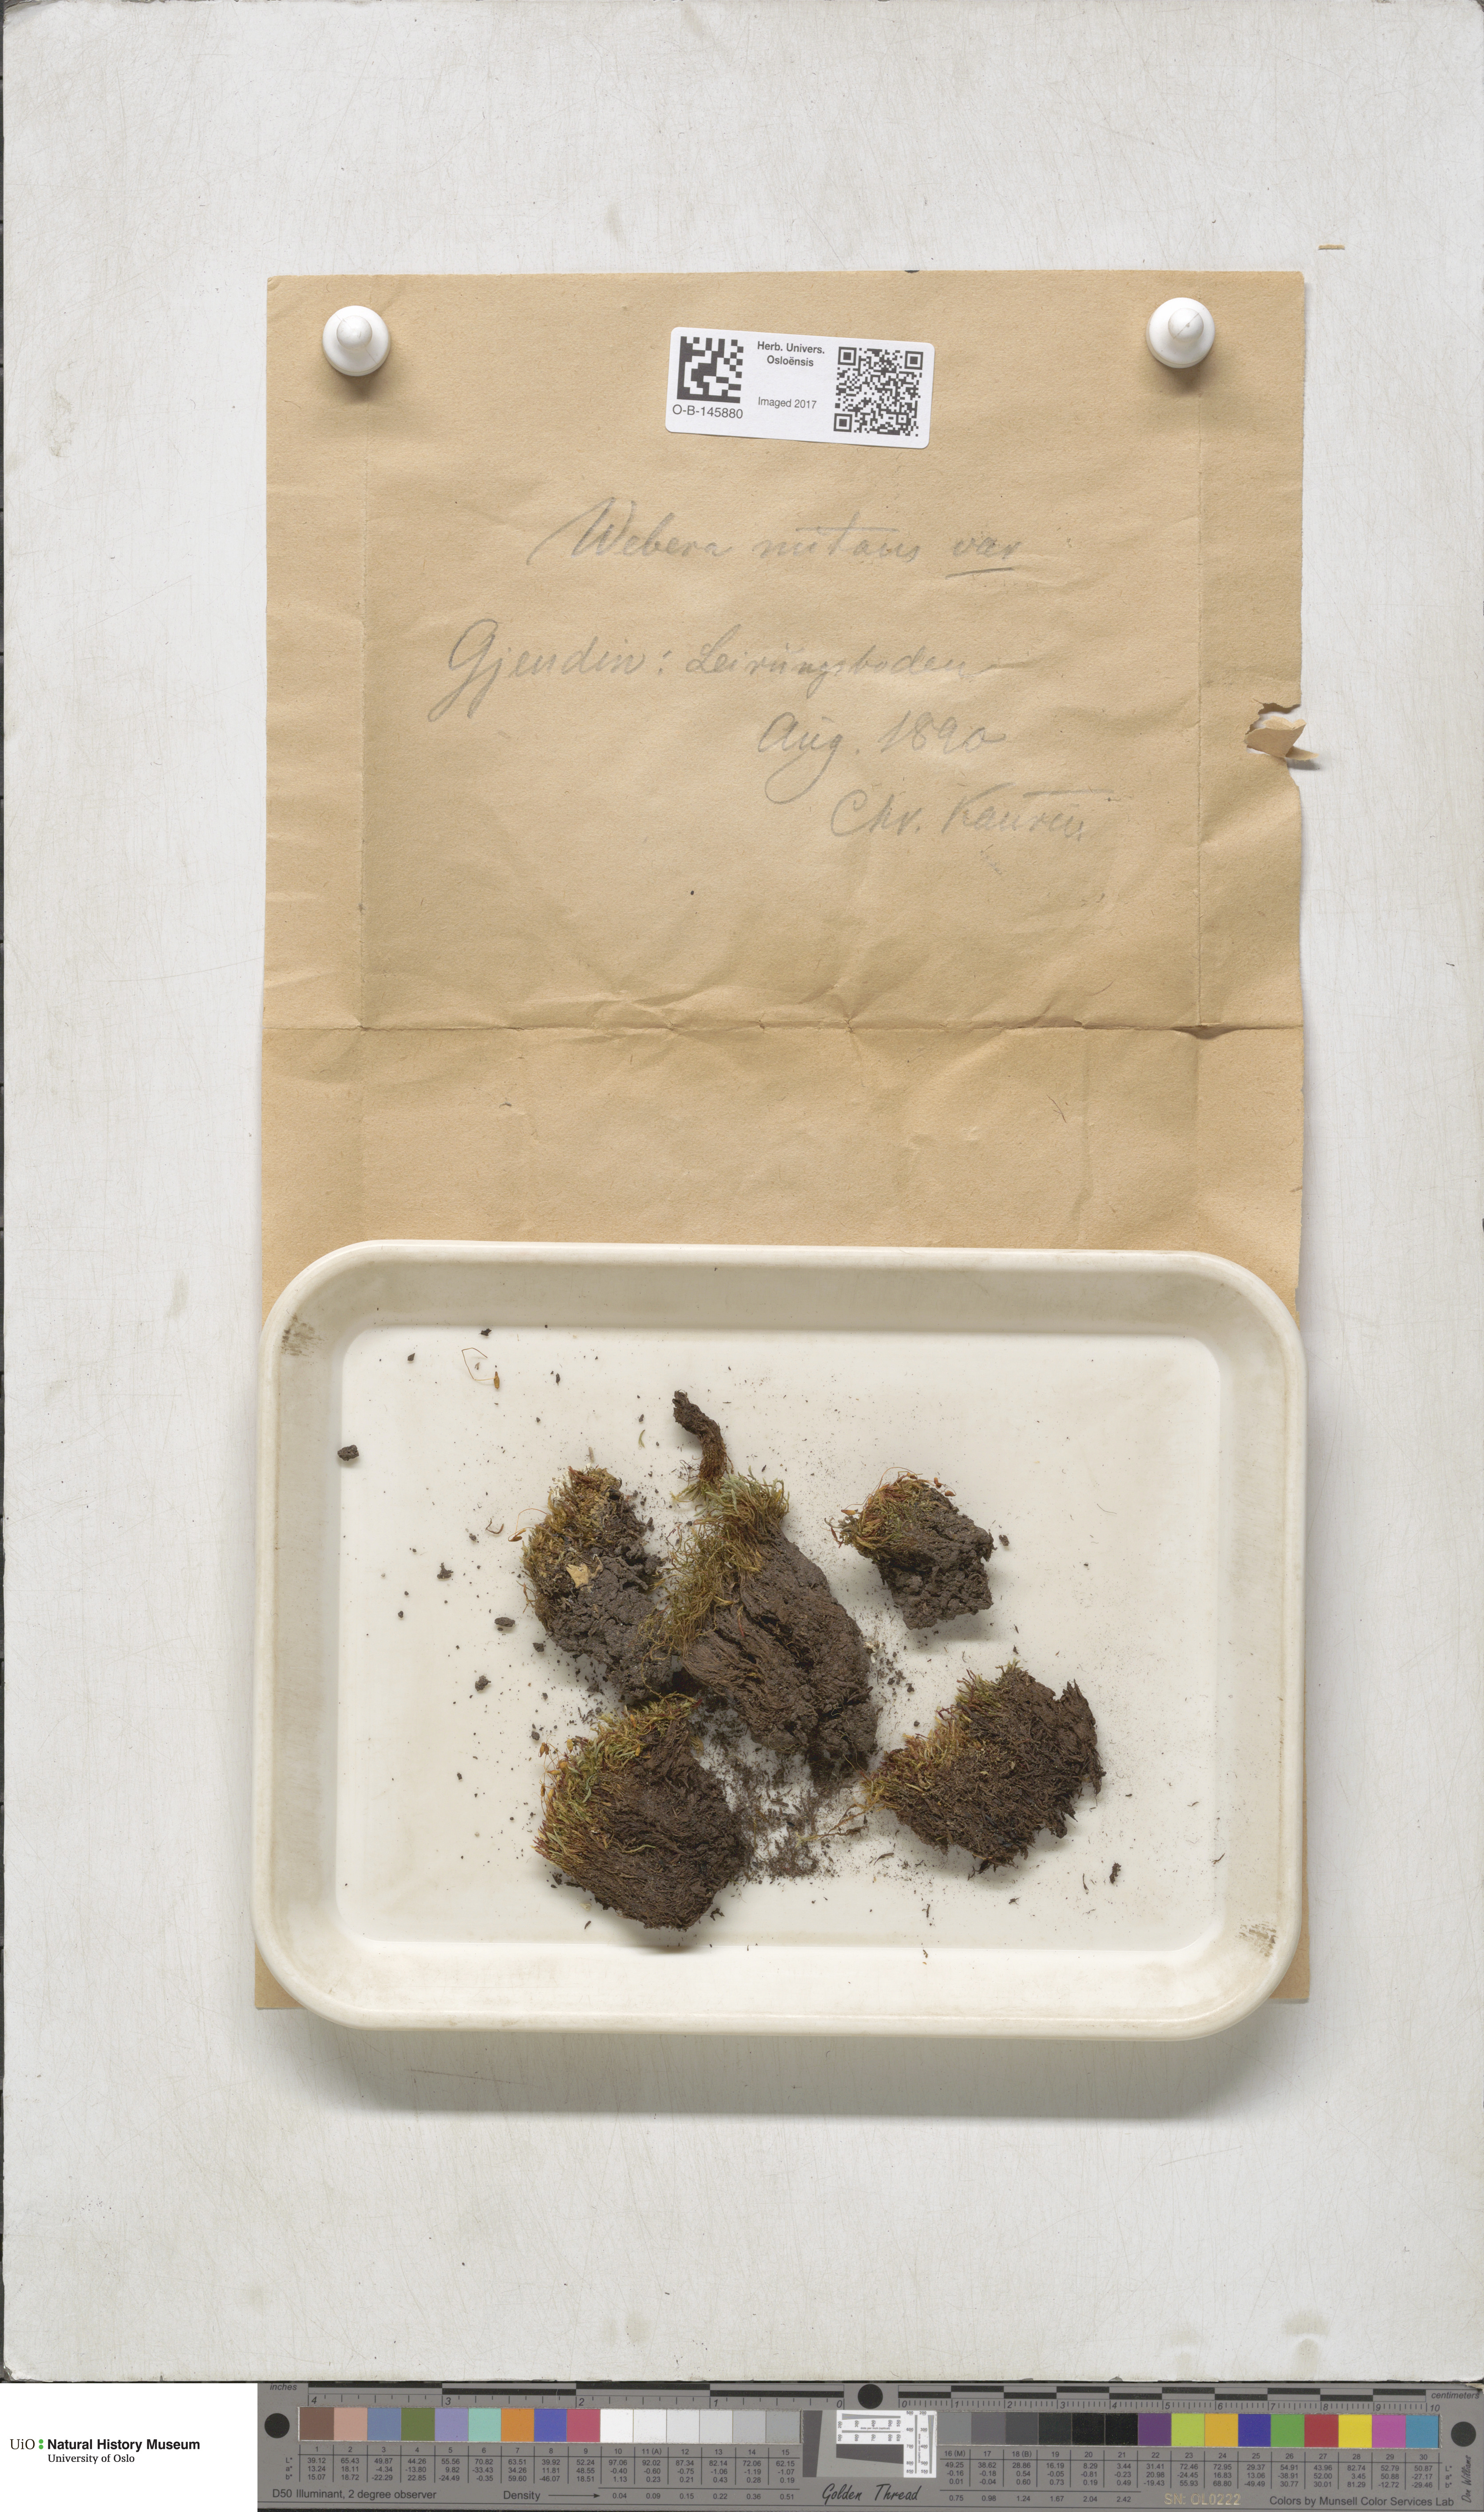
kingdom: Plantae
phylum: Bryophyta
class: Bryopsida
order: Bryales
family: Mniaceae
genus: Pohlia
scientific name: Pohlia nutans
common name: Nodding thread-moss
